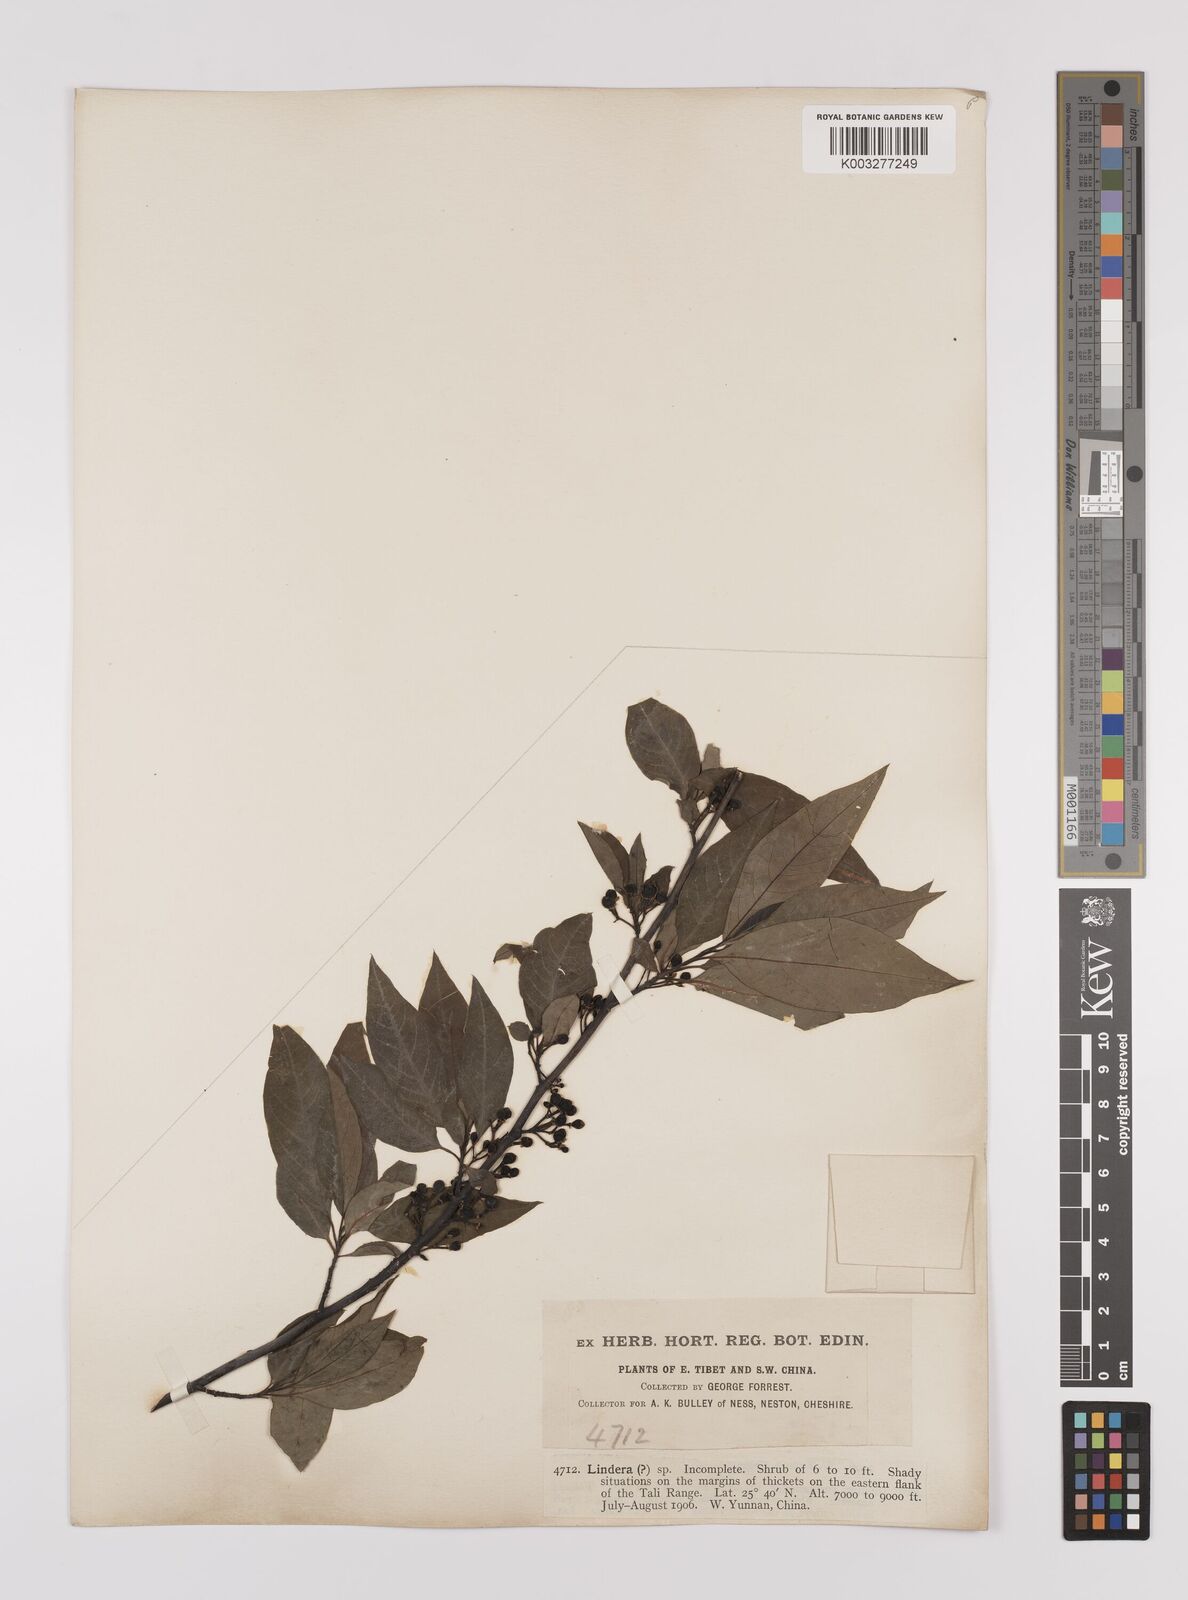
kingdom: Plantae
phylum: Tracheophyta
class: Magnoliopsida
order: Laurales
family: Lauraceae
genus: Litsea
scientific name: Litsea cubeba
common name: Mountain-pepper
